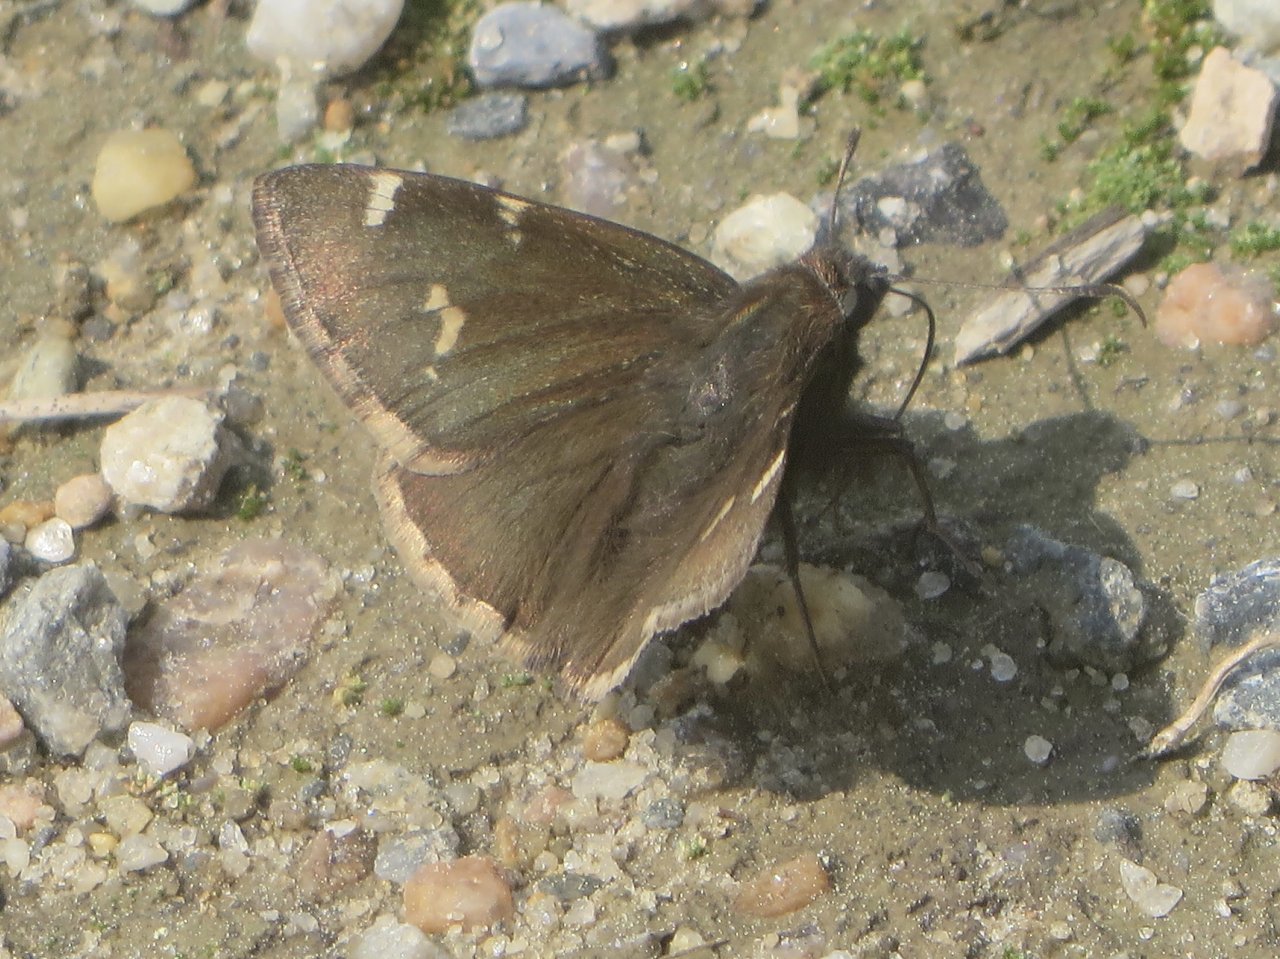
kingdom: Animalia
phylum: Arthropoda
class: Insecta
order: Lepidoptera
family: Hesperiidae
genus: Autochton
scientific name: Autochton
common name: Southern Cloudywing
